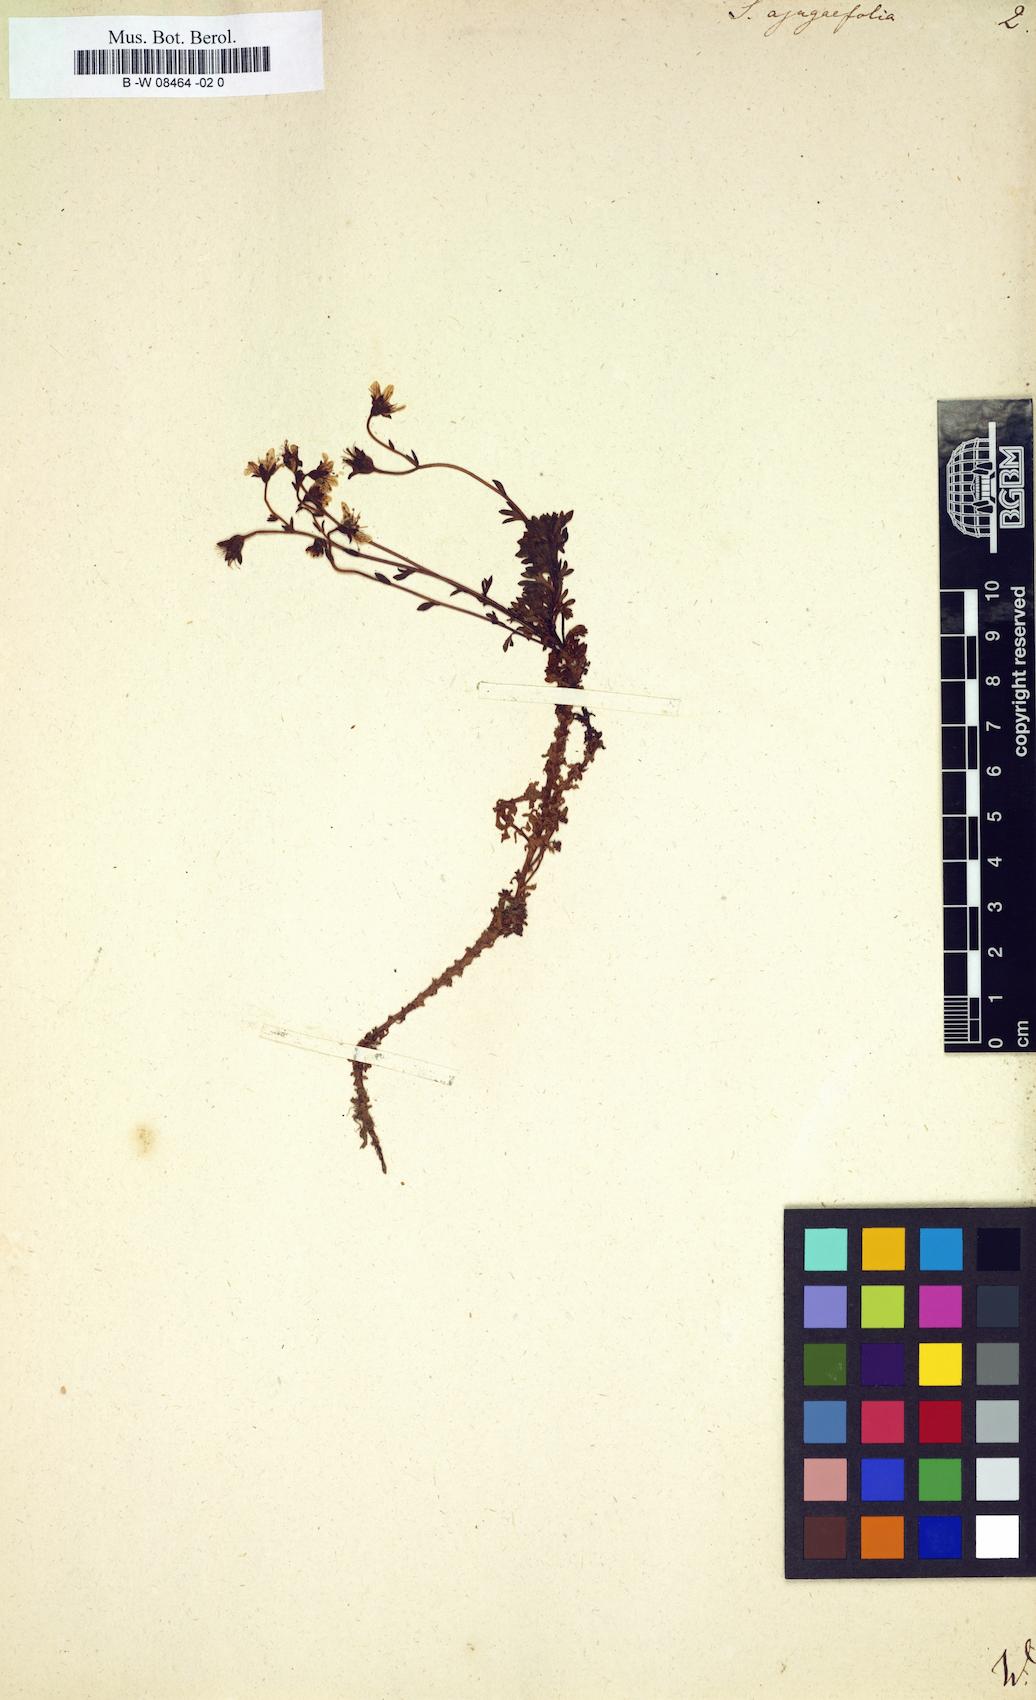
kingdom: Plantae
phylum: Tracheophyta
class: Magnoliopsida
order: Saxifragales
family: Saxifragaceae
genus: Saxifraga
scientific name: Saxifraga
